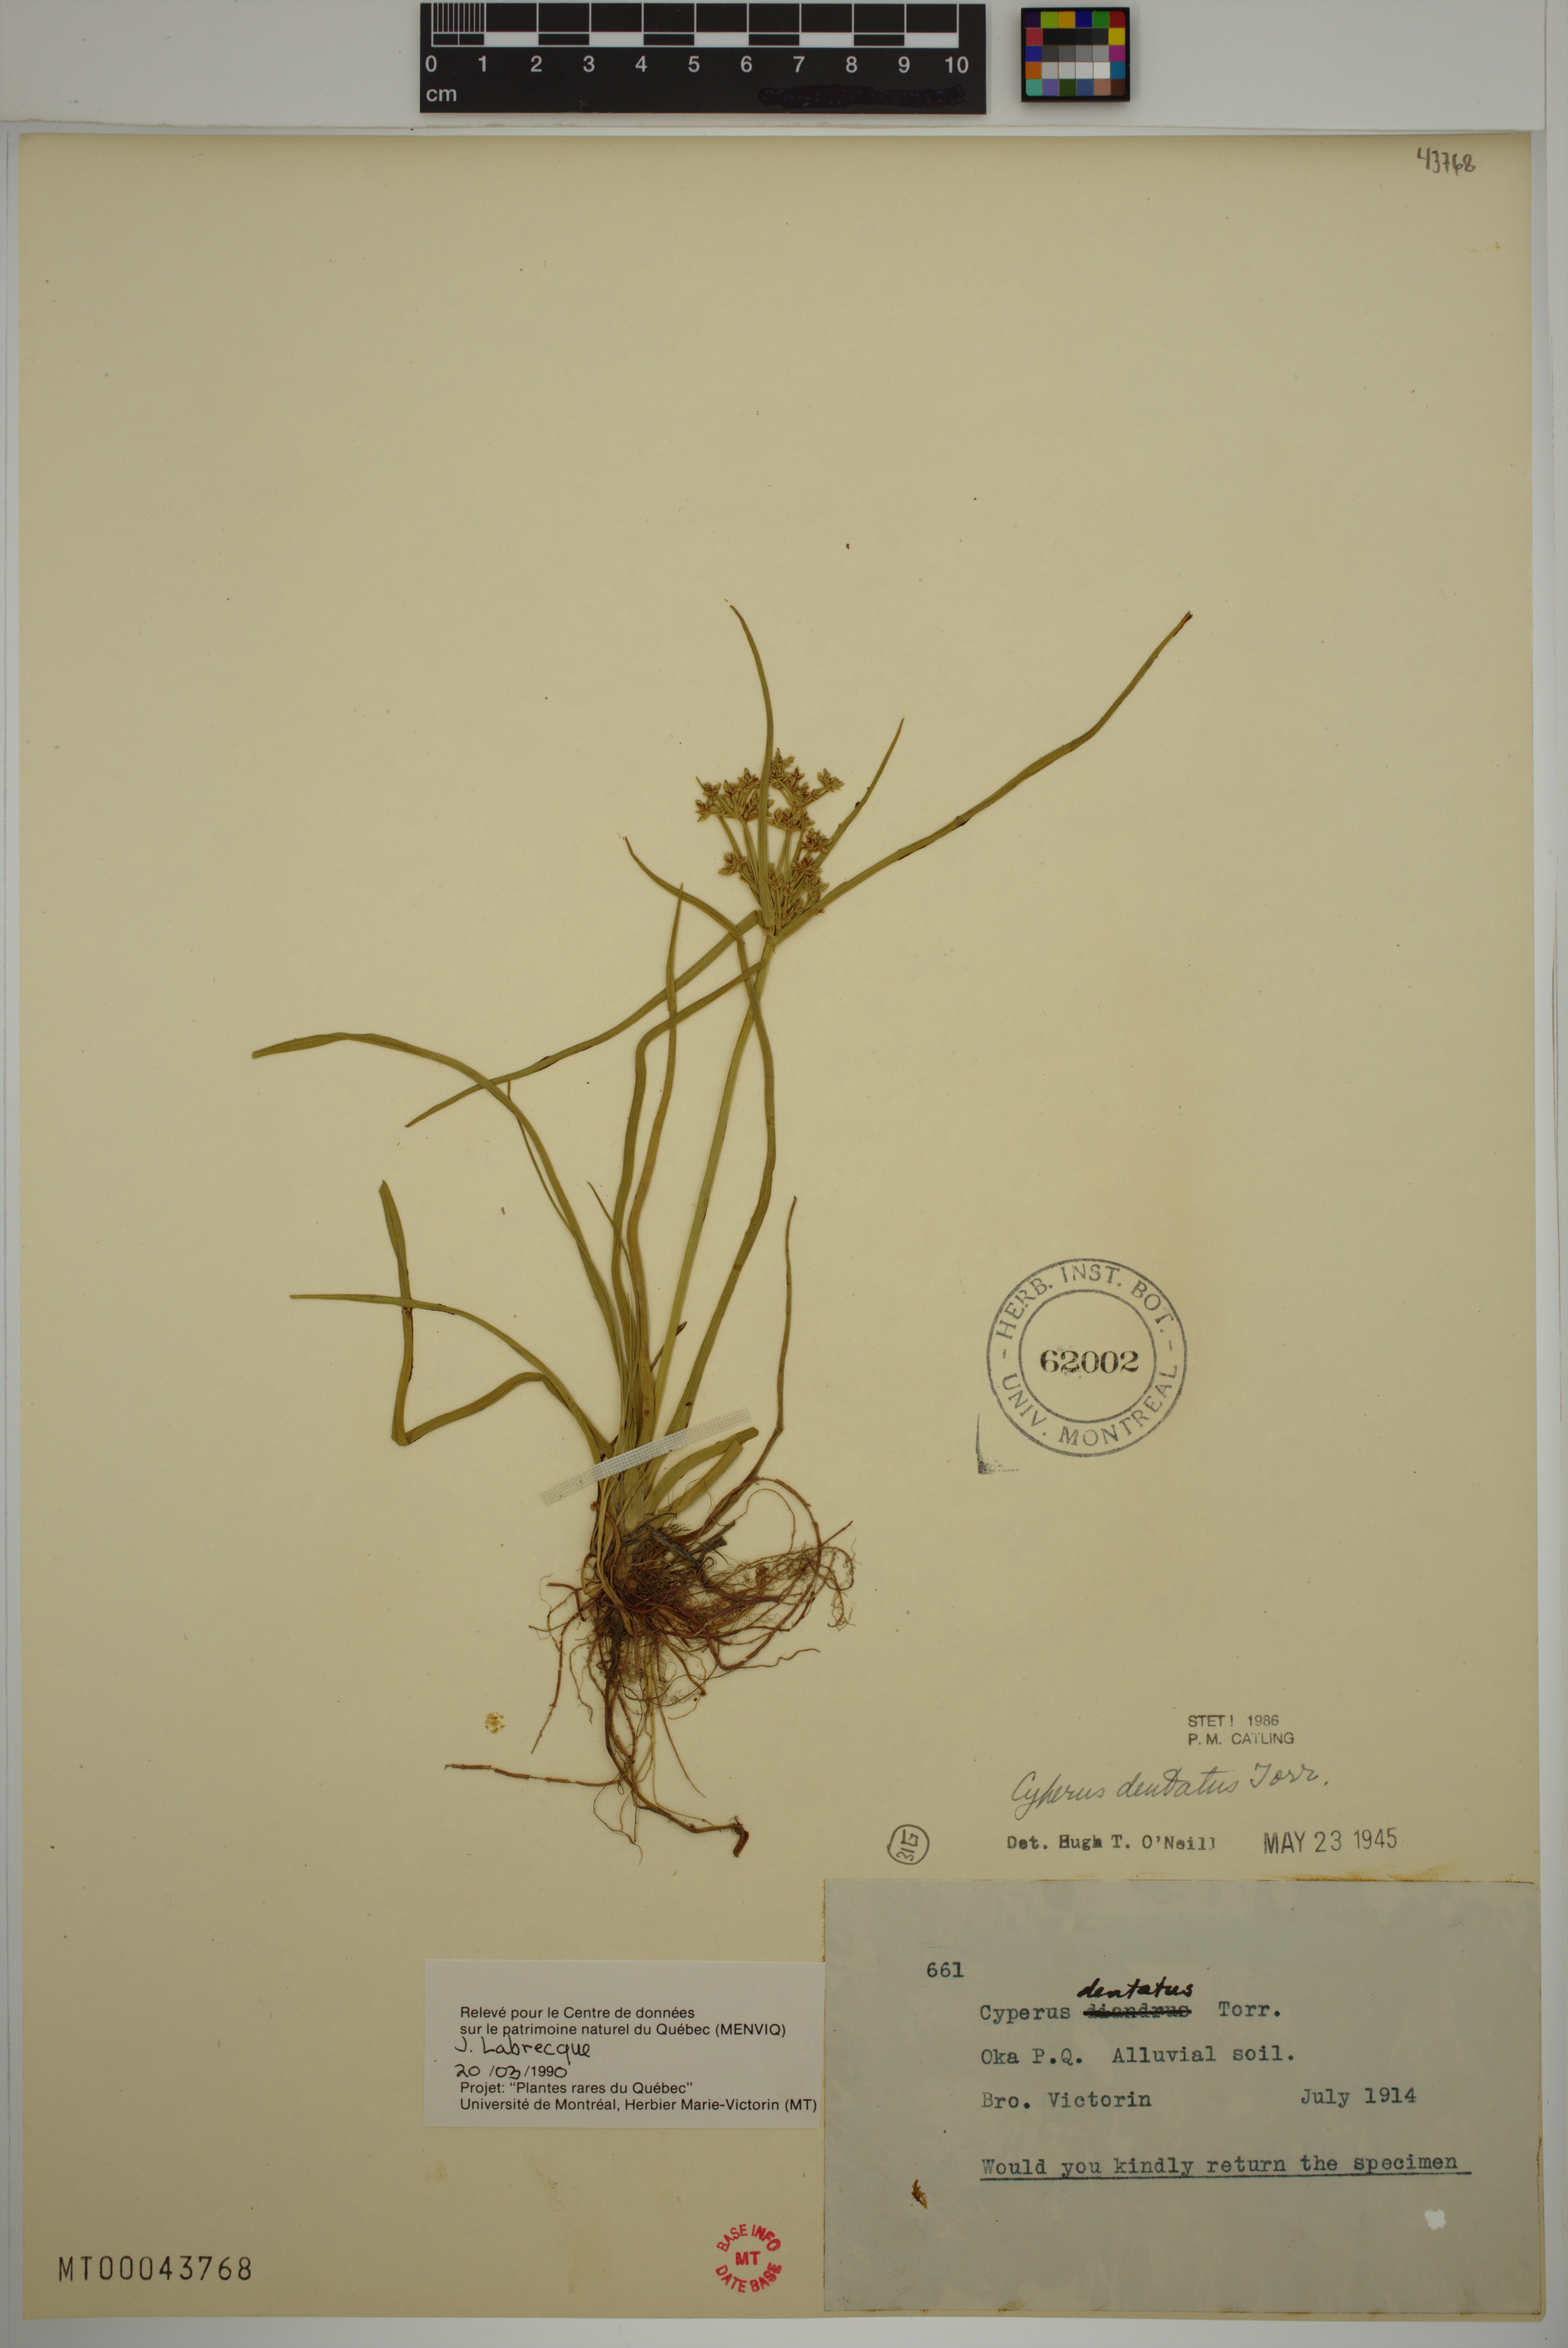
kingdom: Plantae
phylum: Tracheophyta
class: Liliopsida
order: Poales
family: Cyperaceae
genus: Cyperus
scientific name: Cyperus dentatus
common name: Dentate umbrella sedge
